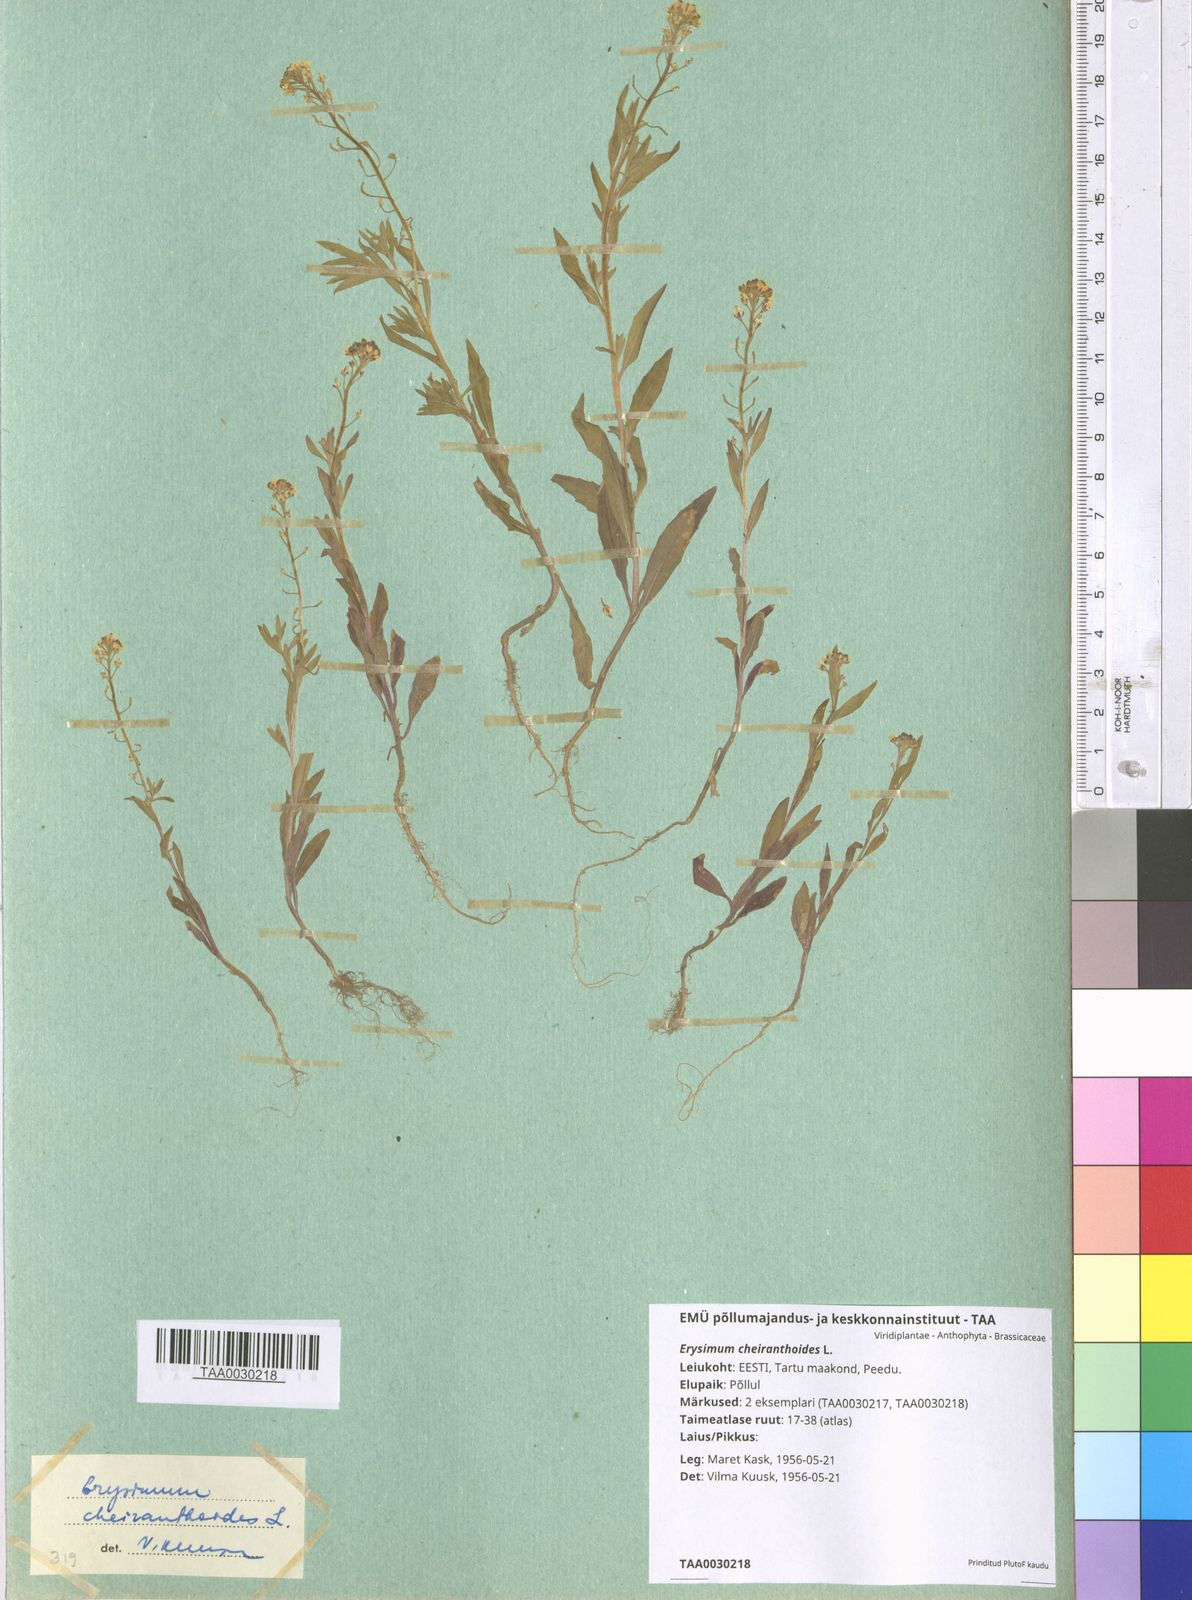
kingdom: Plantae
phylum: Tracheophyta
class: Magnoliopsida
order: Brassicales
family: Brassicaceae
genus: Erysimum
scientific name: Erysimum cheiranthoides
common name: Treacle mustard
